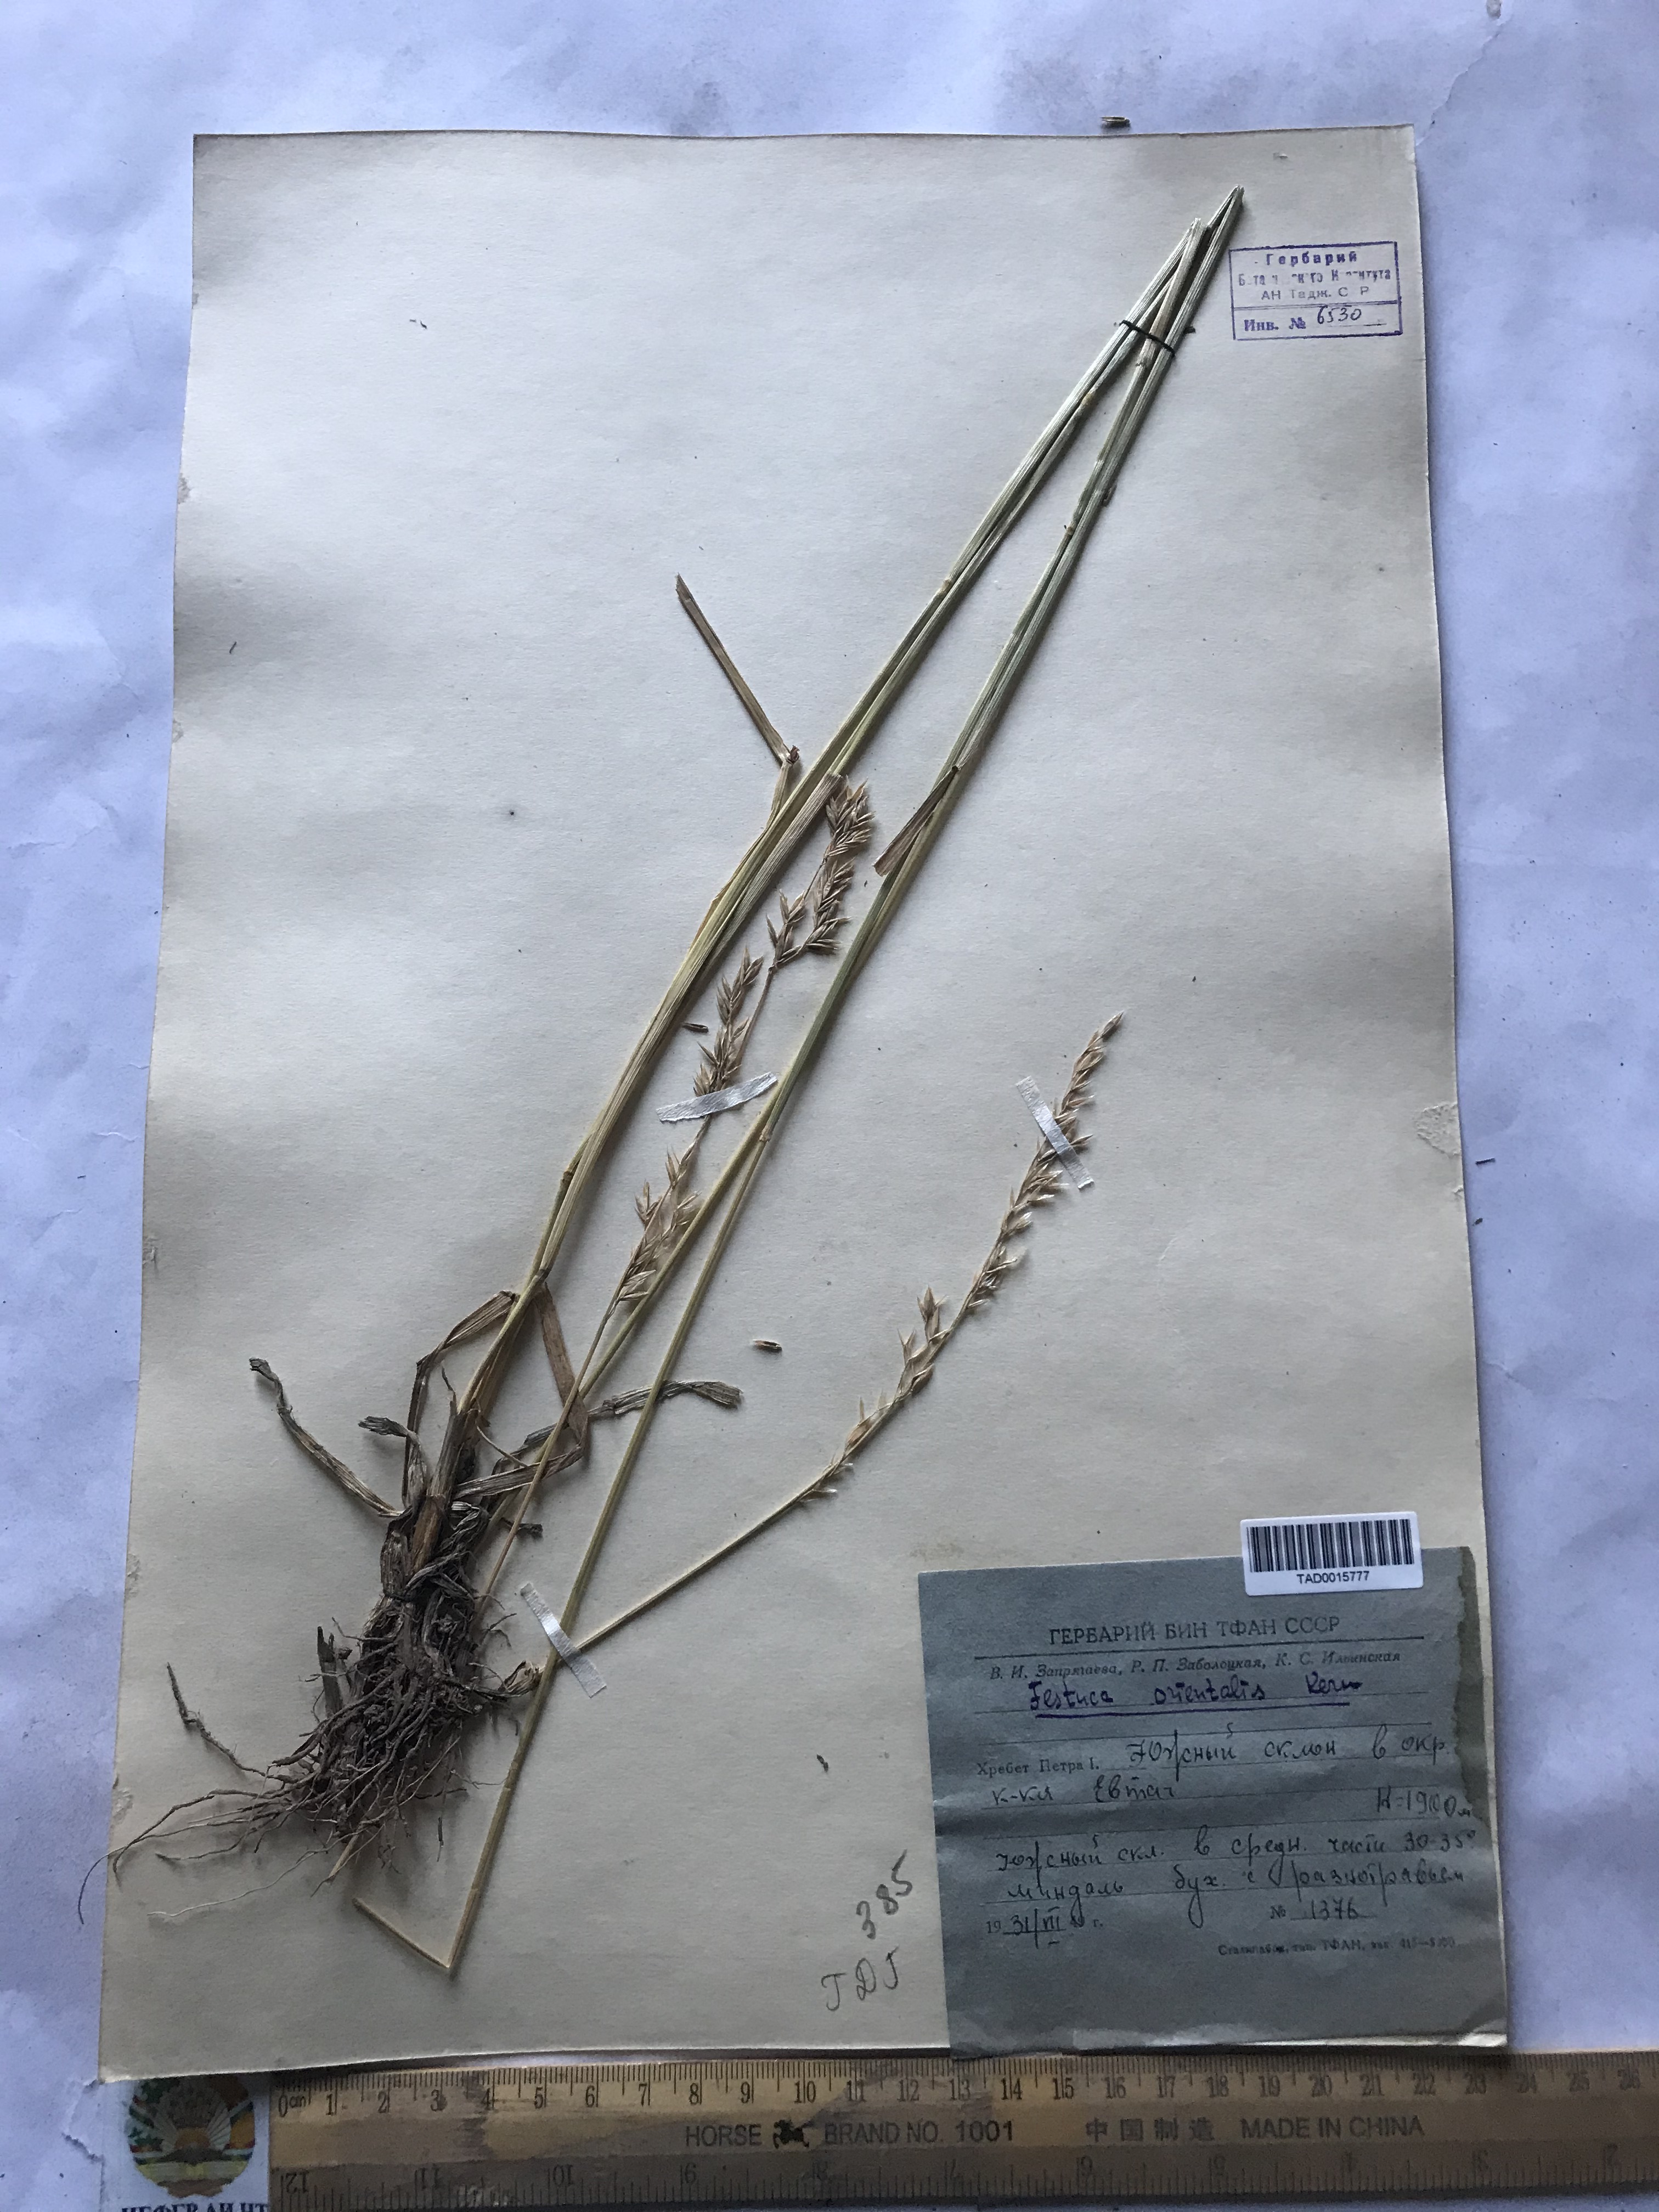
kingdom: Plantae
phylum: Tracheophyta
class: Liliopsida
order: Poales
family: Poaceae
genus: Lolium
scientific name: Lolium arundinaceum
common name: Reed fescue
